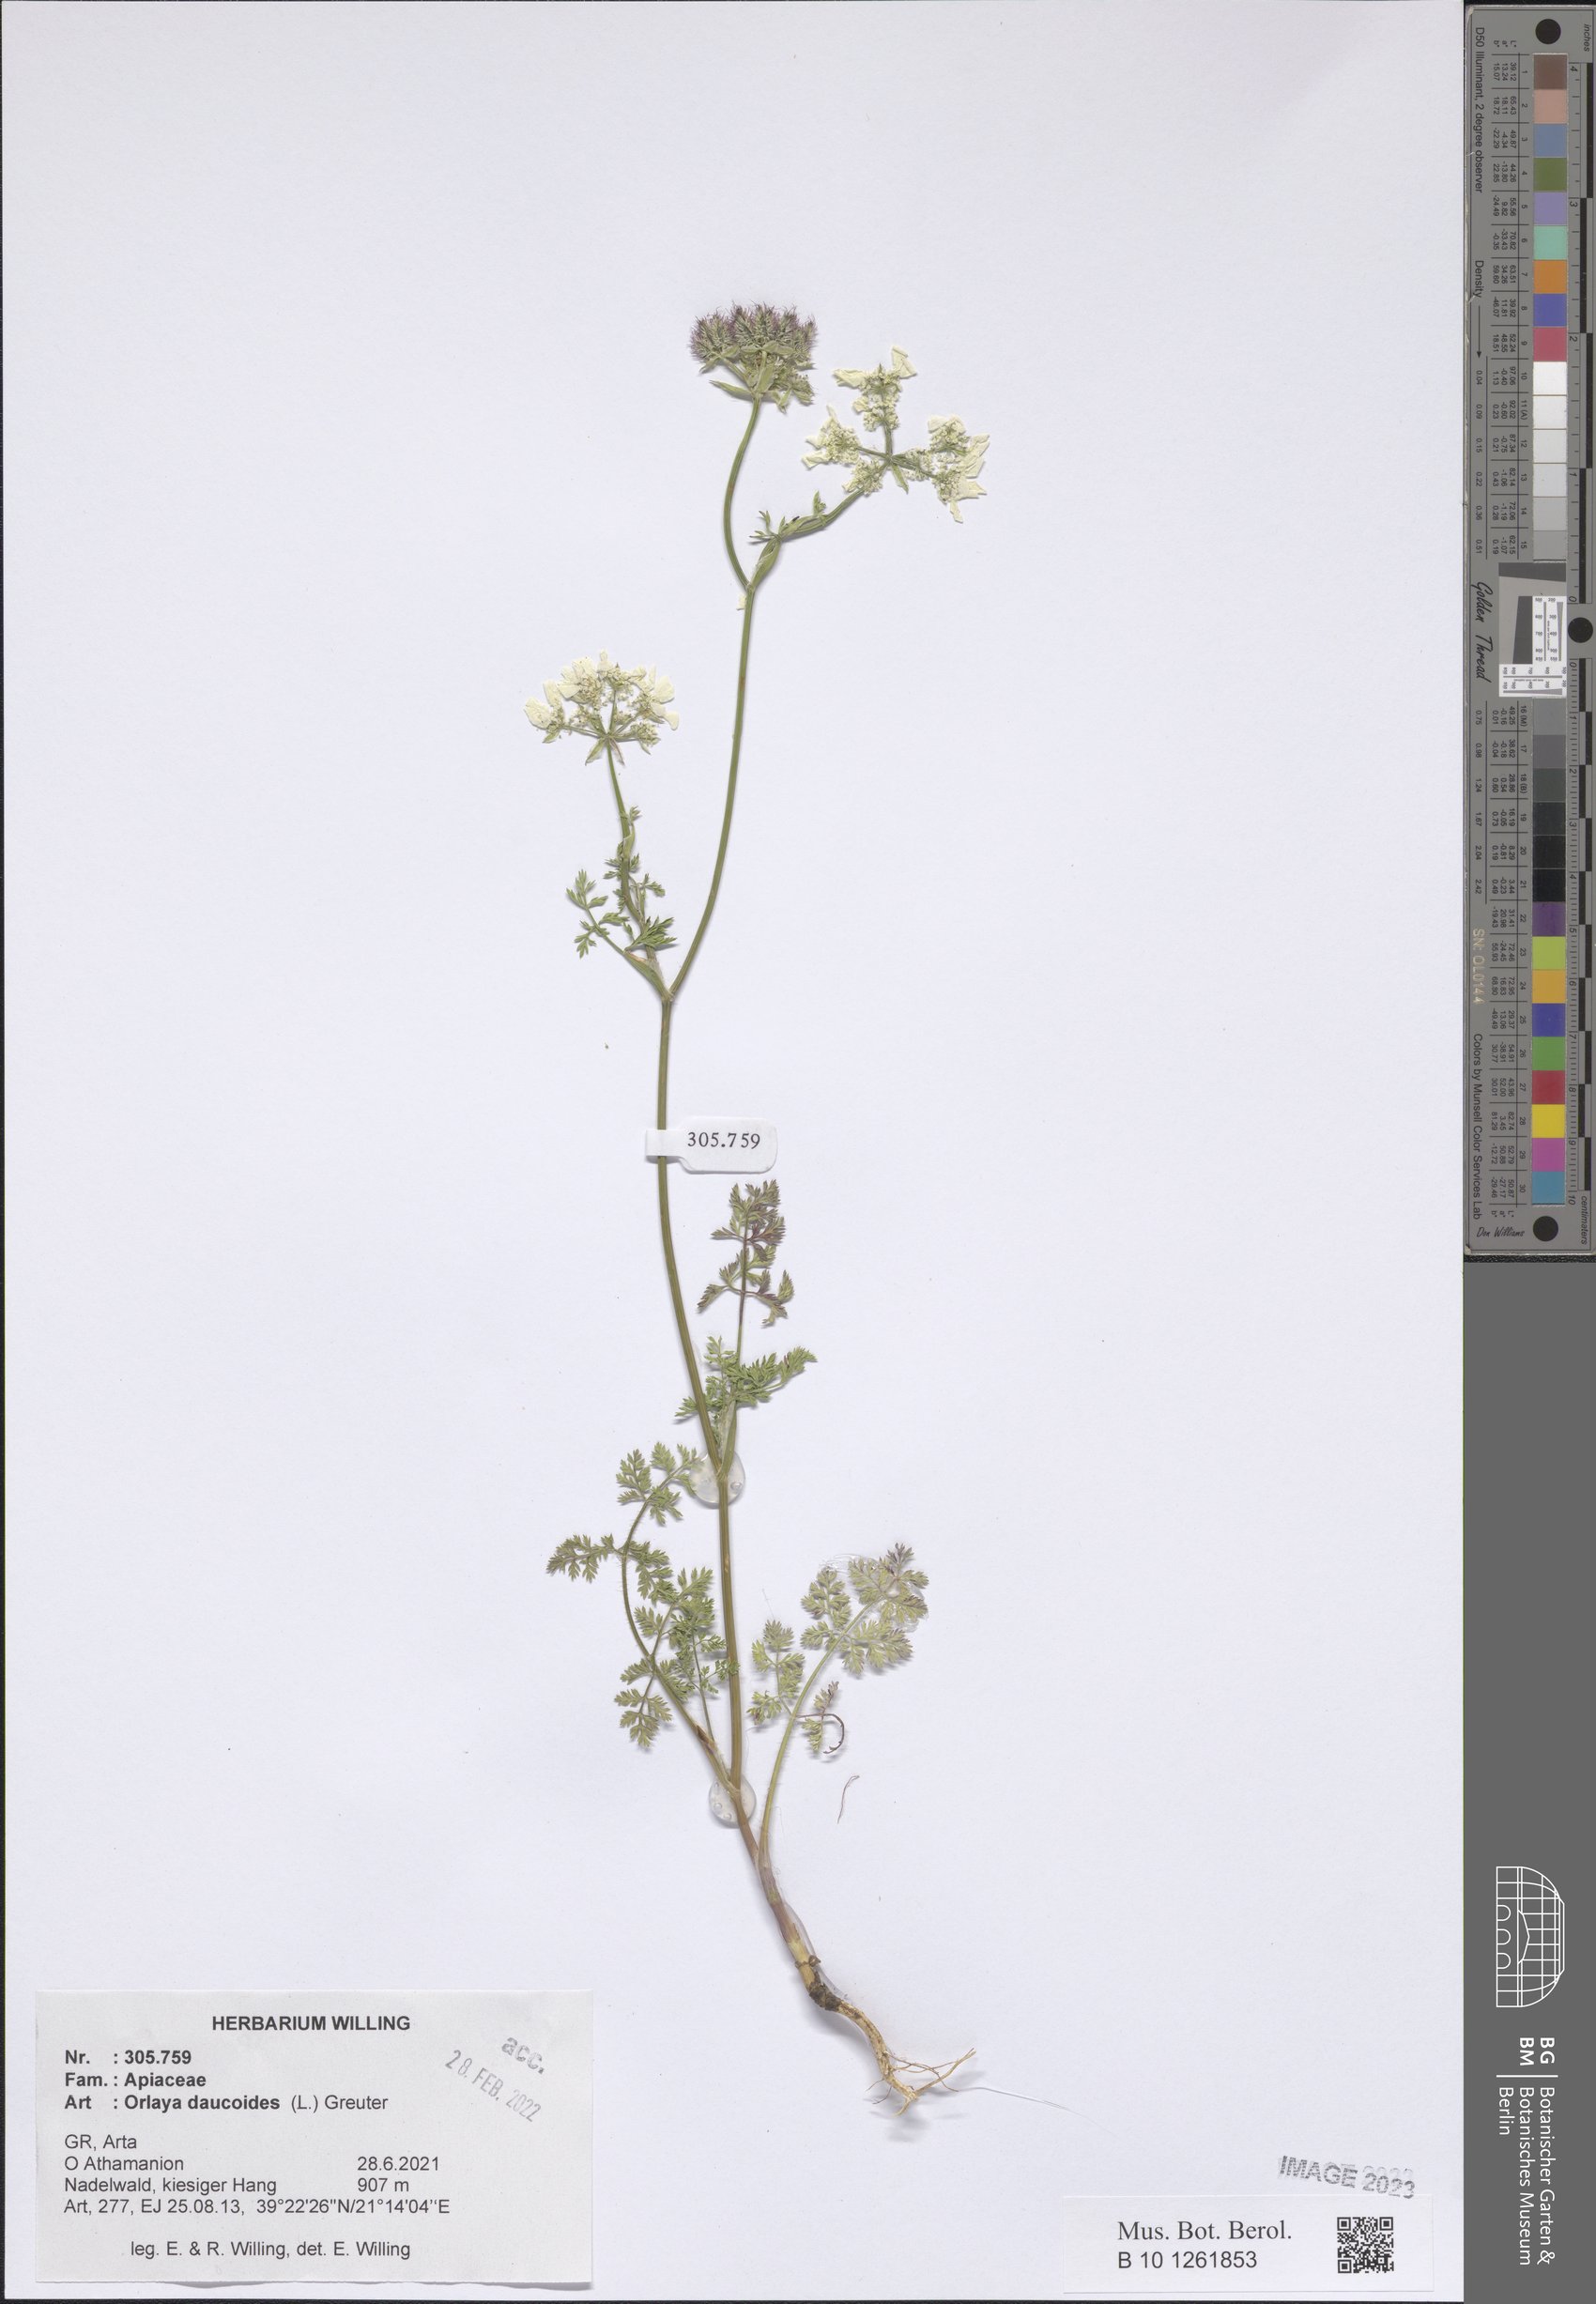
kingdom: Plantae
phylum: Tracheophyta
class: Magnoliopsida
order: Apiales
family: Apiaceae
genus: Orlaya
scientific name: Orlaya daucoides
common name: Flat-fruit orlaya
